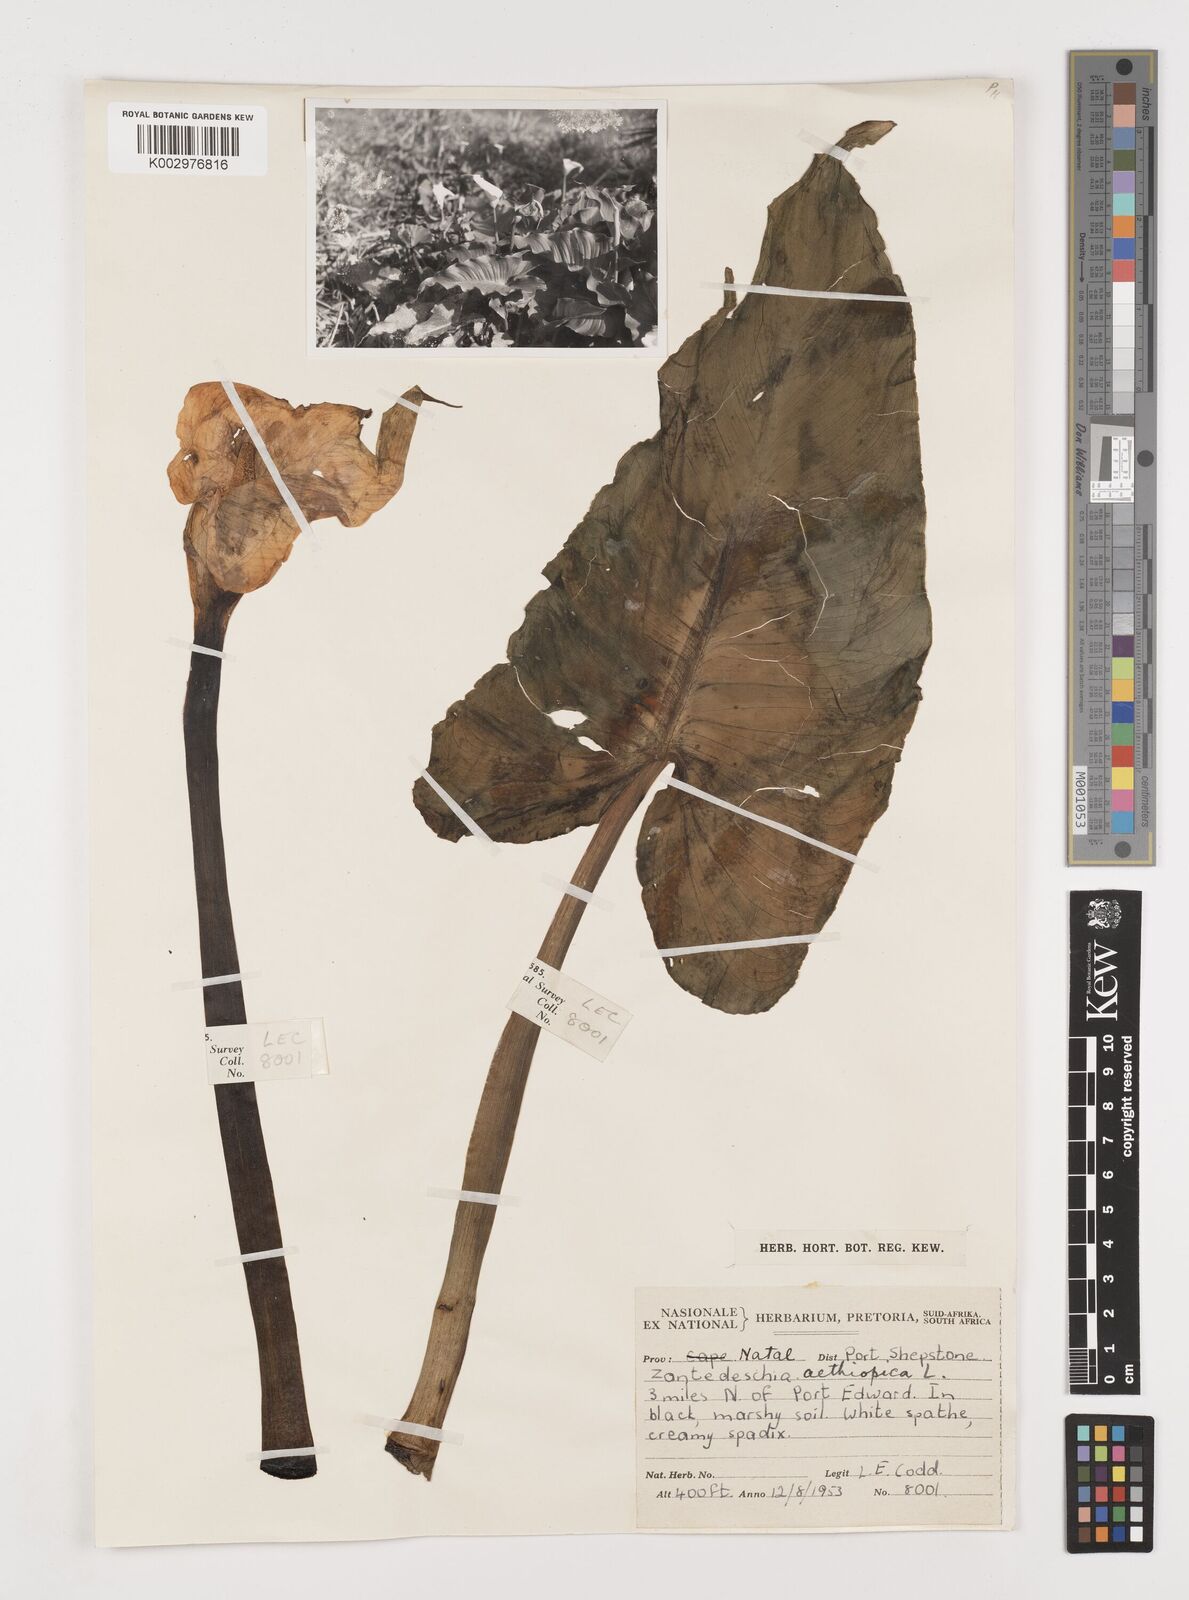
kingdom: Plantae
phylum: Tracheophyta
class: Liliopsida
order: Alismatales
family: Araceae
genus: Zantedeschia
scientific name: Zantedeschia aethiopica
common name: Altar-lily
